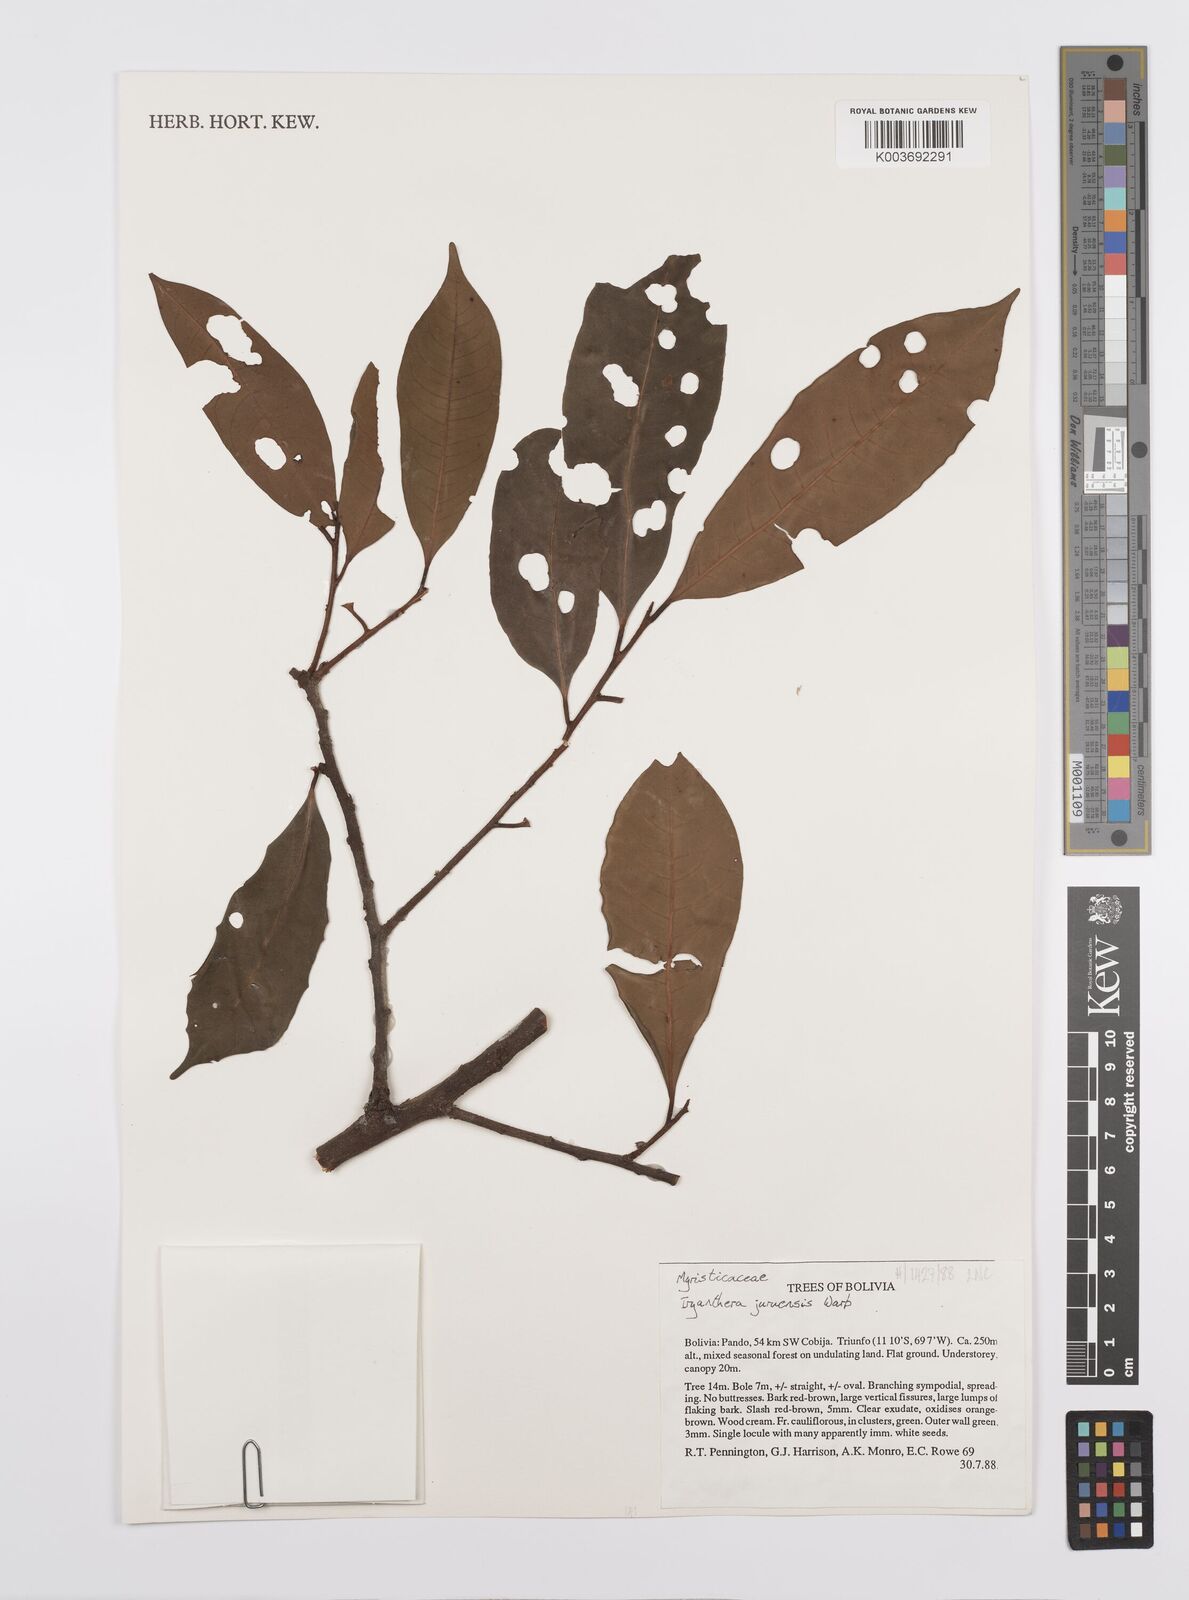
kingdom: Plantae
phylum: Tracheophyta
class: Magnoliopsida
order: Magnoliales
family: Myristicaceae
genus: Iryanthera
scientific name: Iryanthera juruensis
